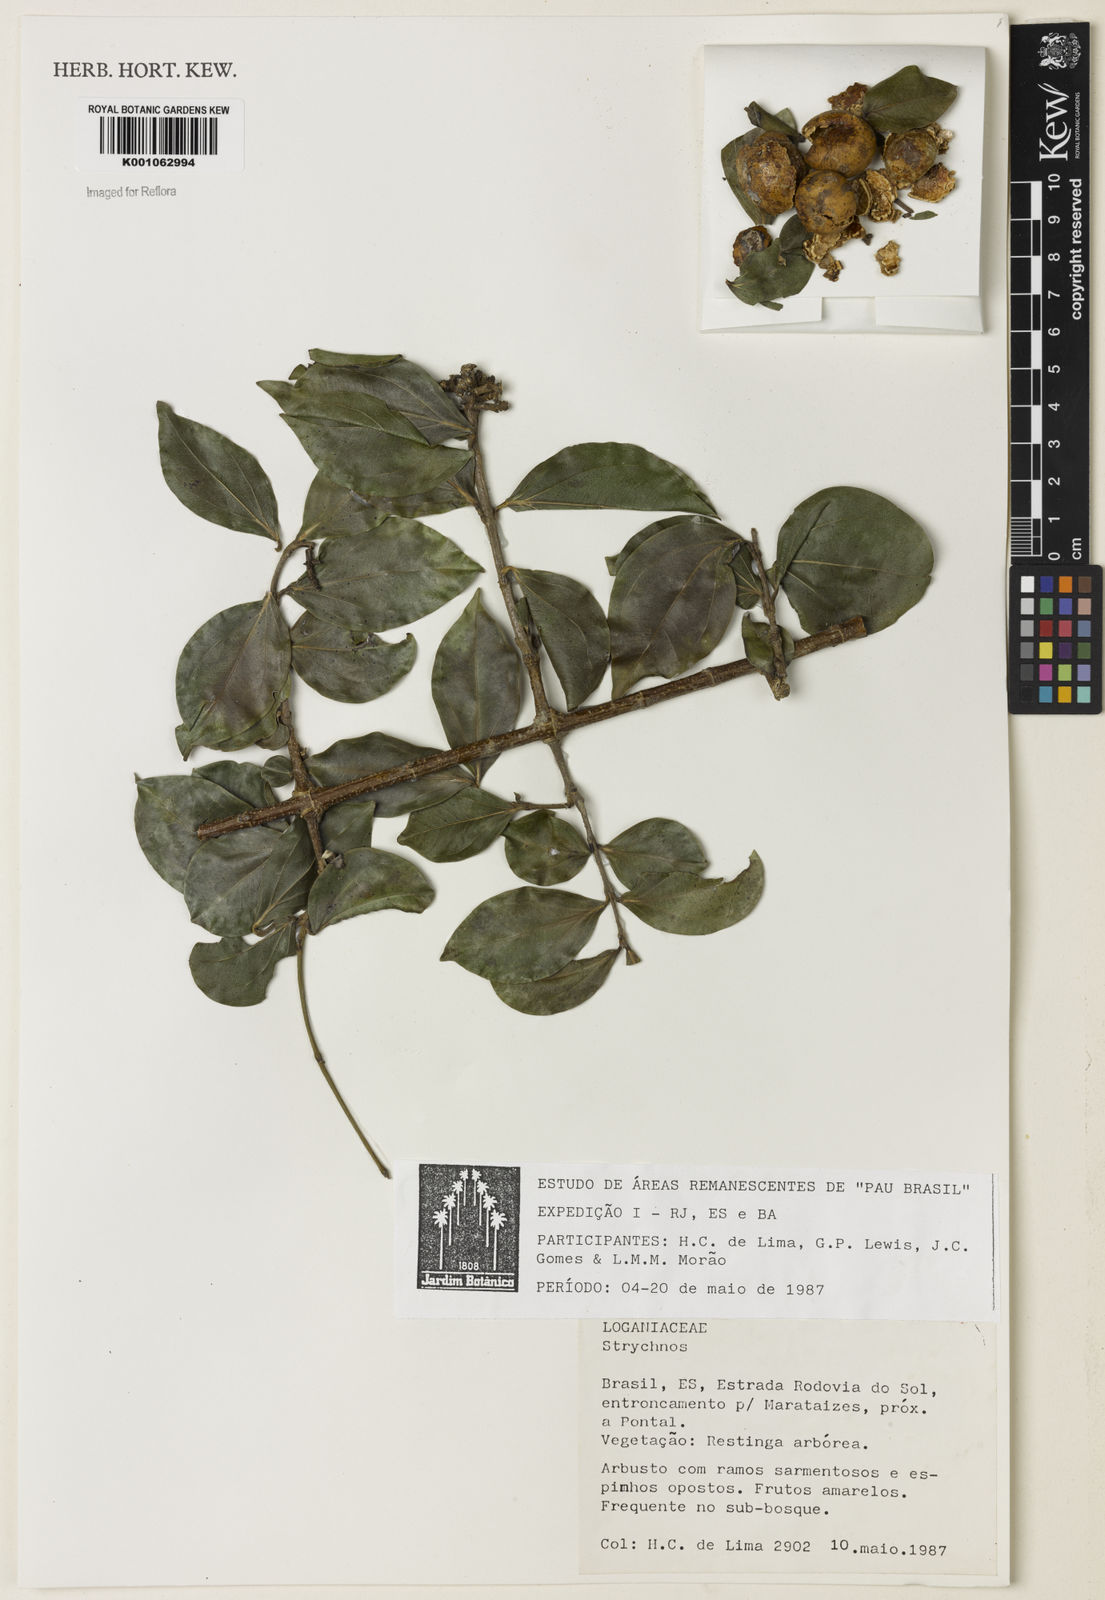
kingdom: Plantae
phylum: Tracheophyta
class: Magnoliopsida
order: Gentianales
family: Loganiaceae
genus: Strychnos
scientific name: Strychnos
